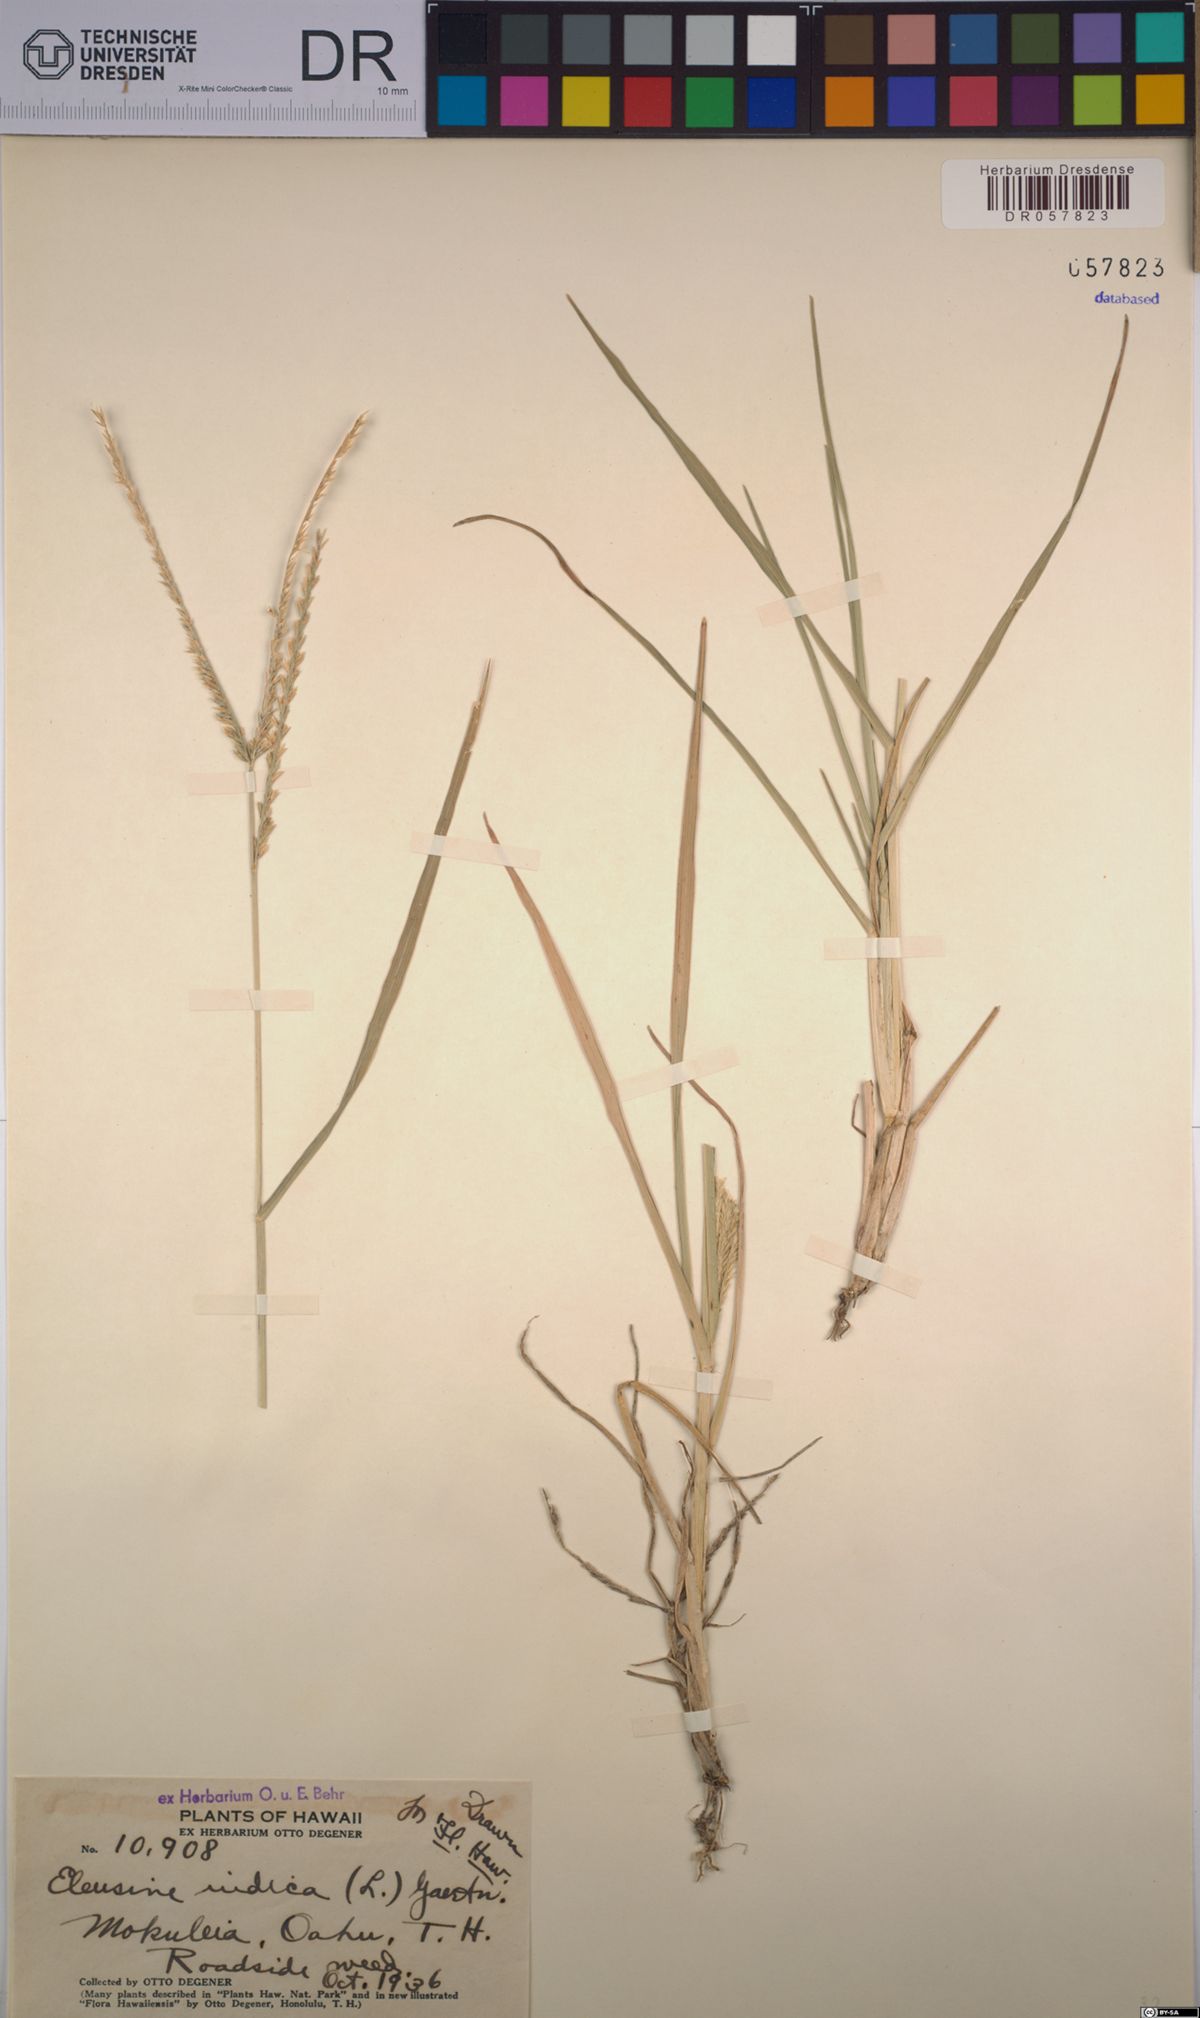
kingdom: Plantae
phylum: Tracheophyta
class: Liliopsida
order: Poales
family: Poaceae
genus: Eleusine
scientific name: Eleusine indica
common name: Yard-grass
